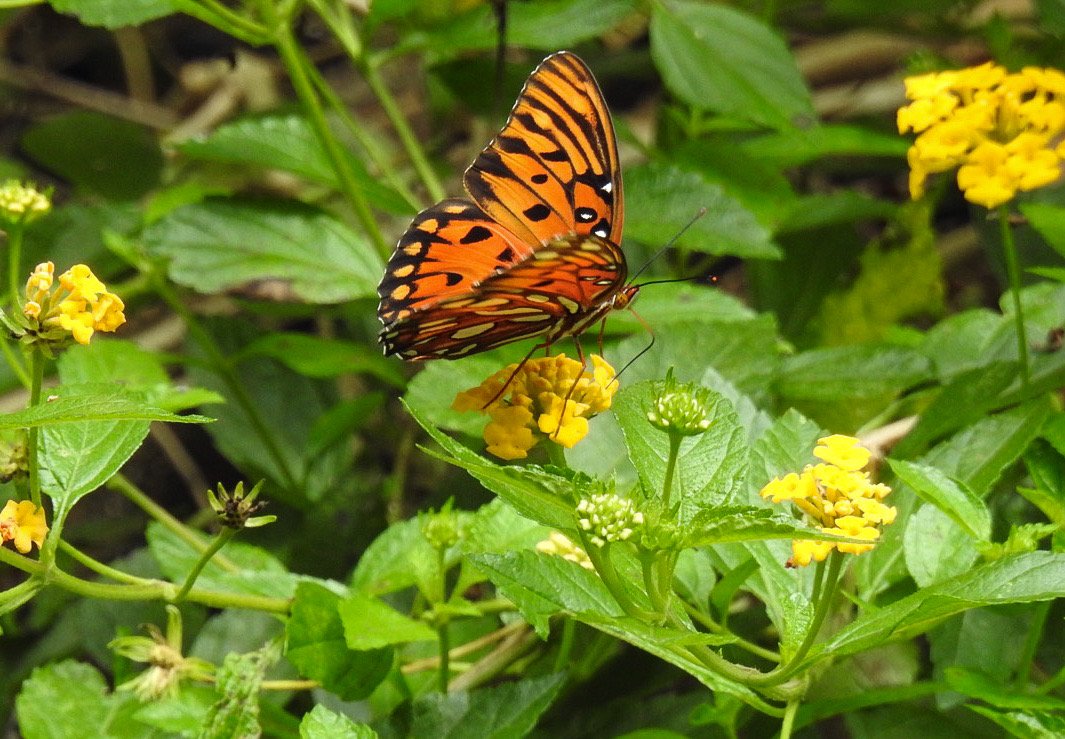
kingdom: Animalia
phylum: Arthropoda
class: Insecta
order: Lepidoptera
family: Nymphalidae
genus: Dione
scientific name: Dione vanillae
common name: Gulf Fritillary
